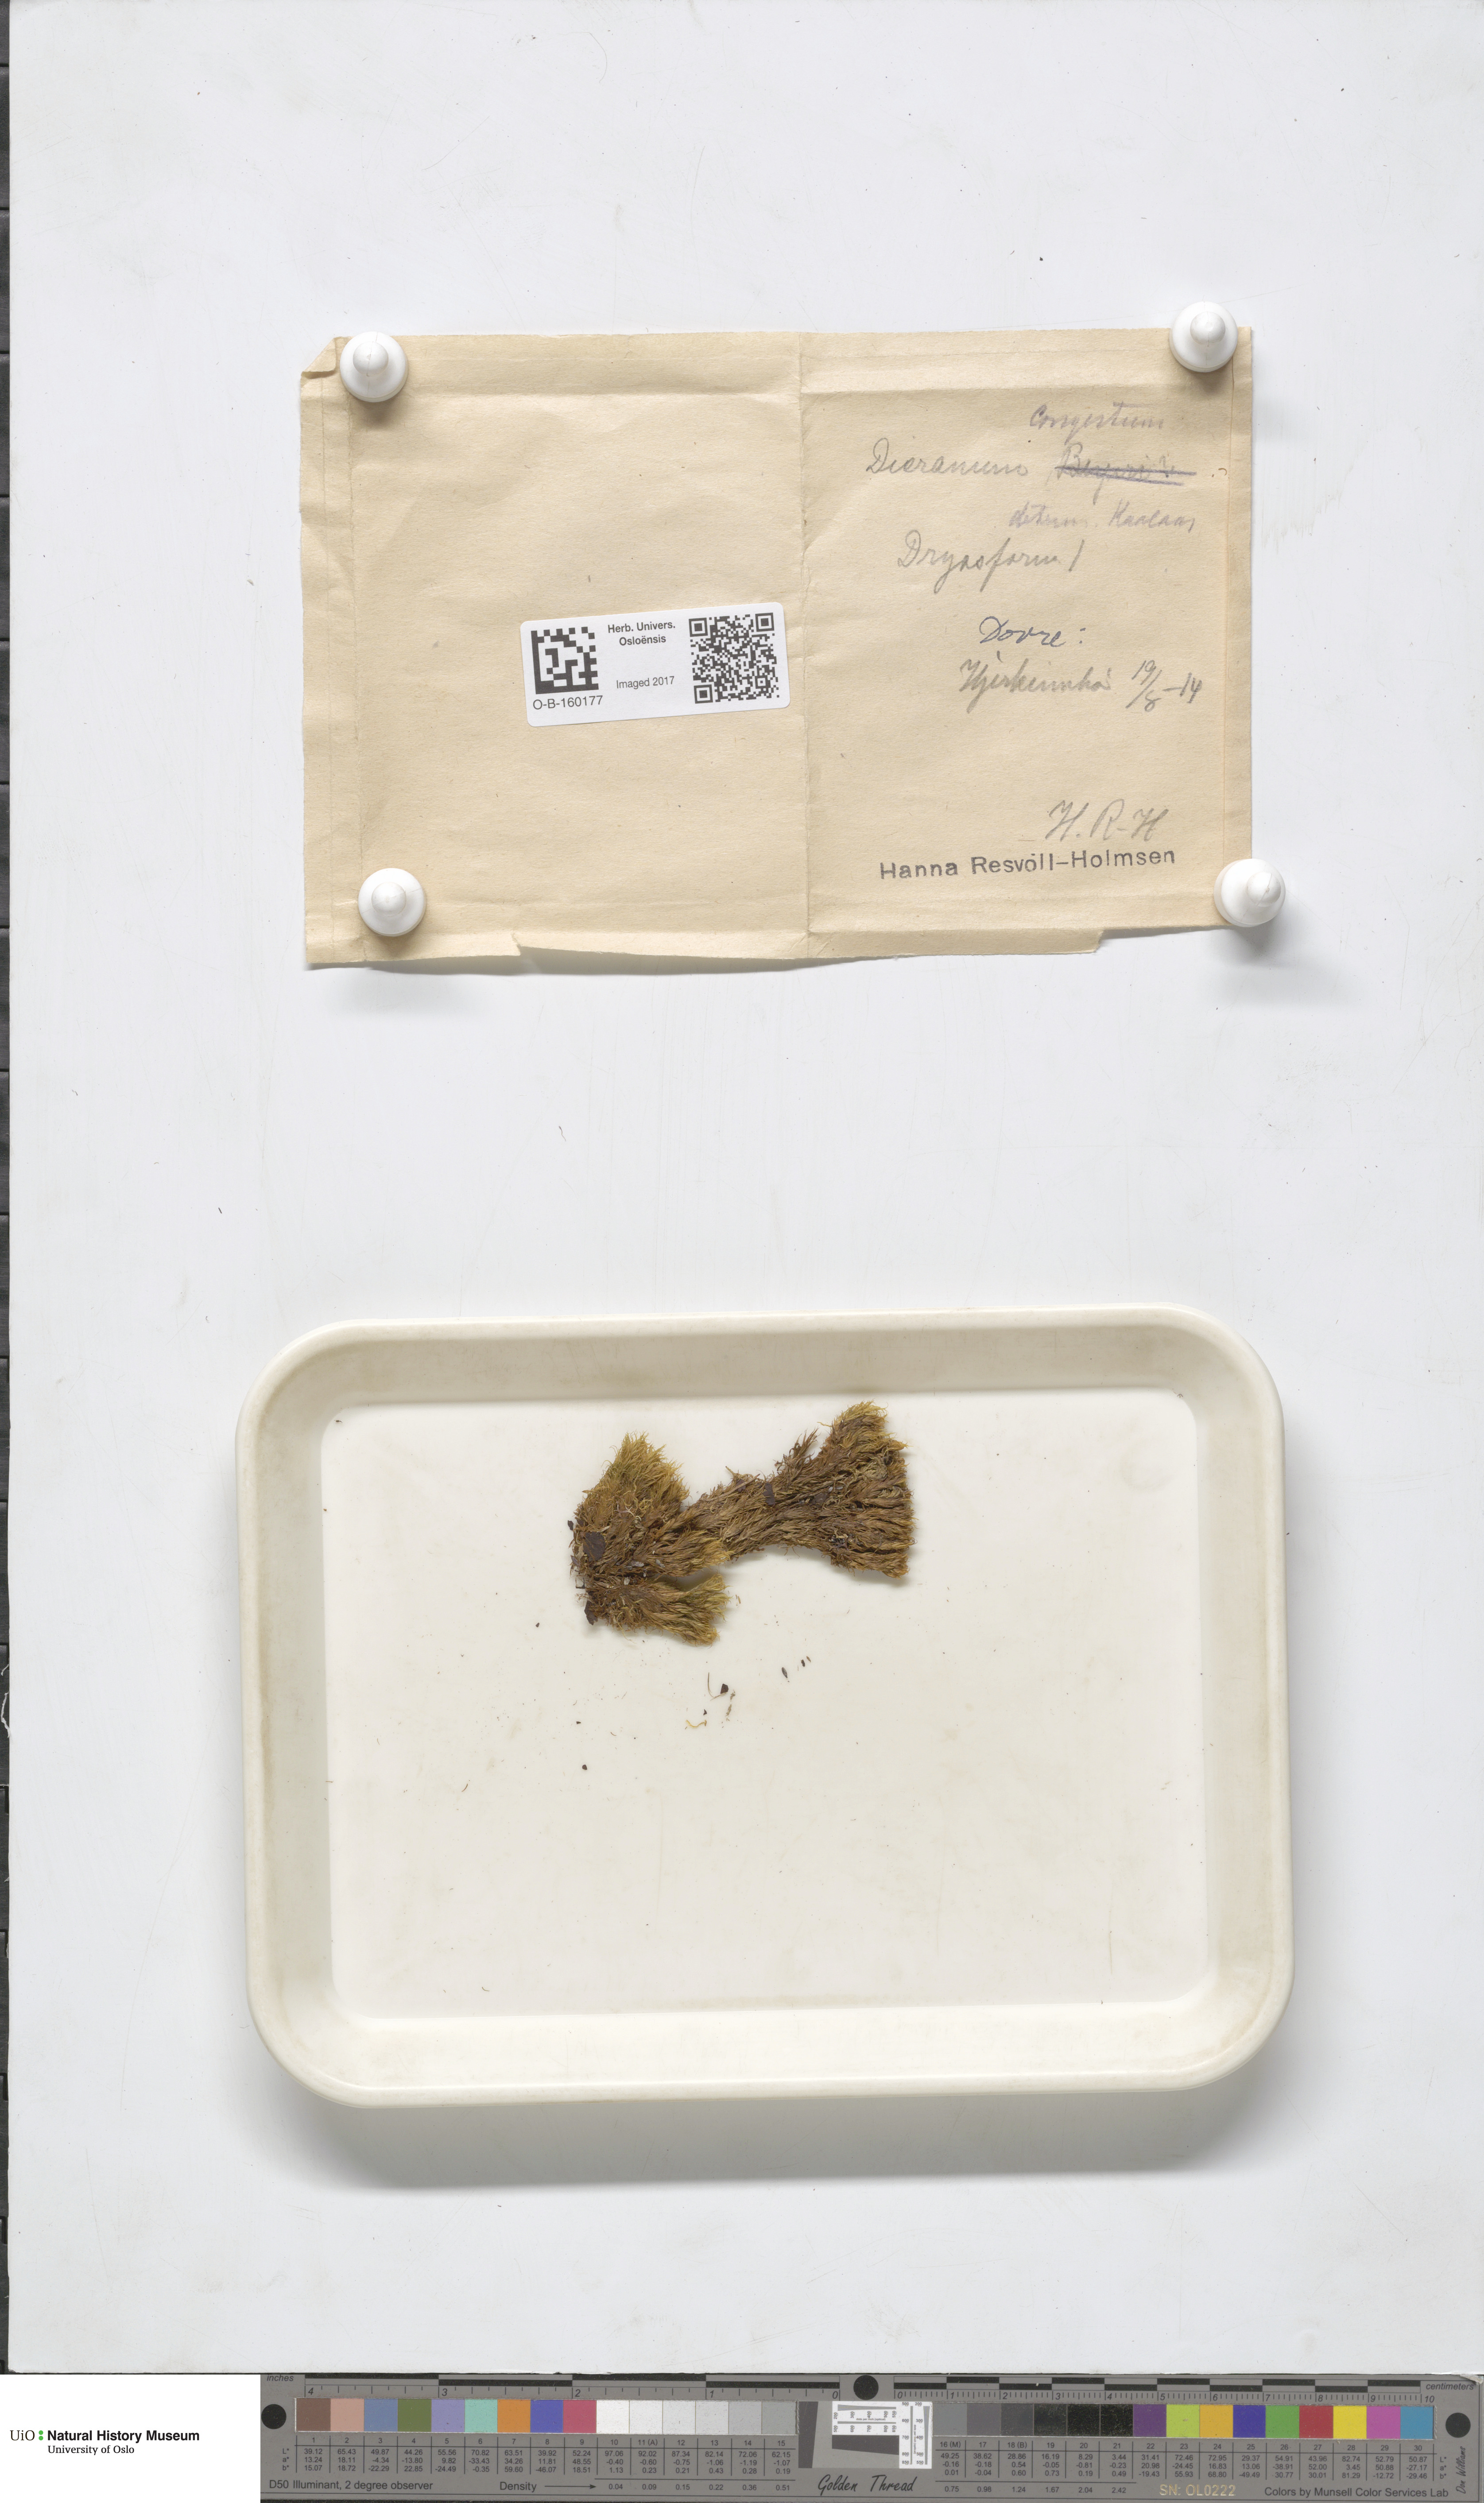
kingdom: Plantae
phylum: Bryophyta
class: Bryopsida
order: Dicranales
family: Dicranaceae
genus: Dicranum
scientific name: Dicranum flexicaule
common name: Bendy heron s-bill moss
